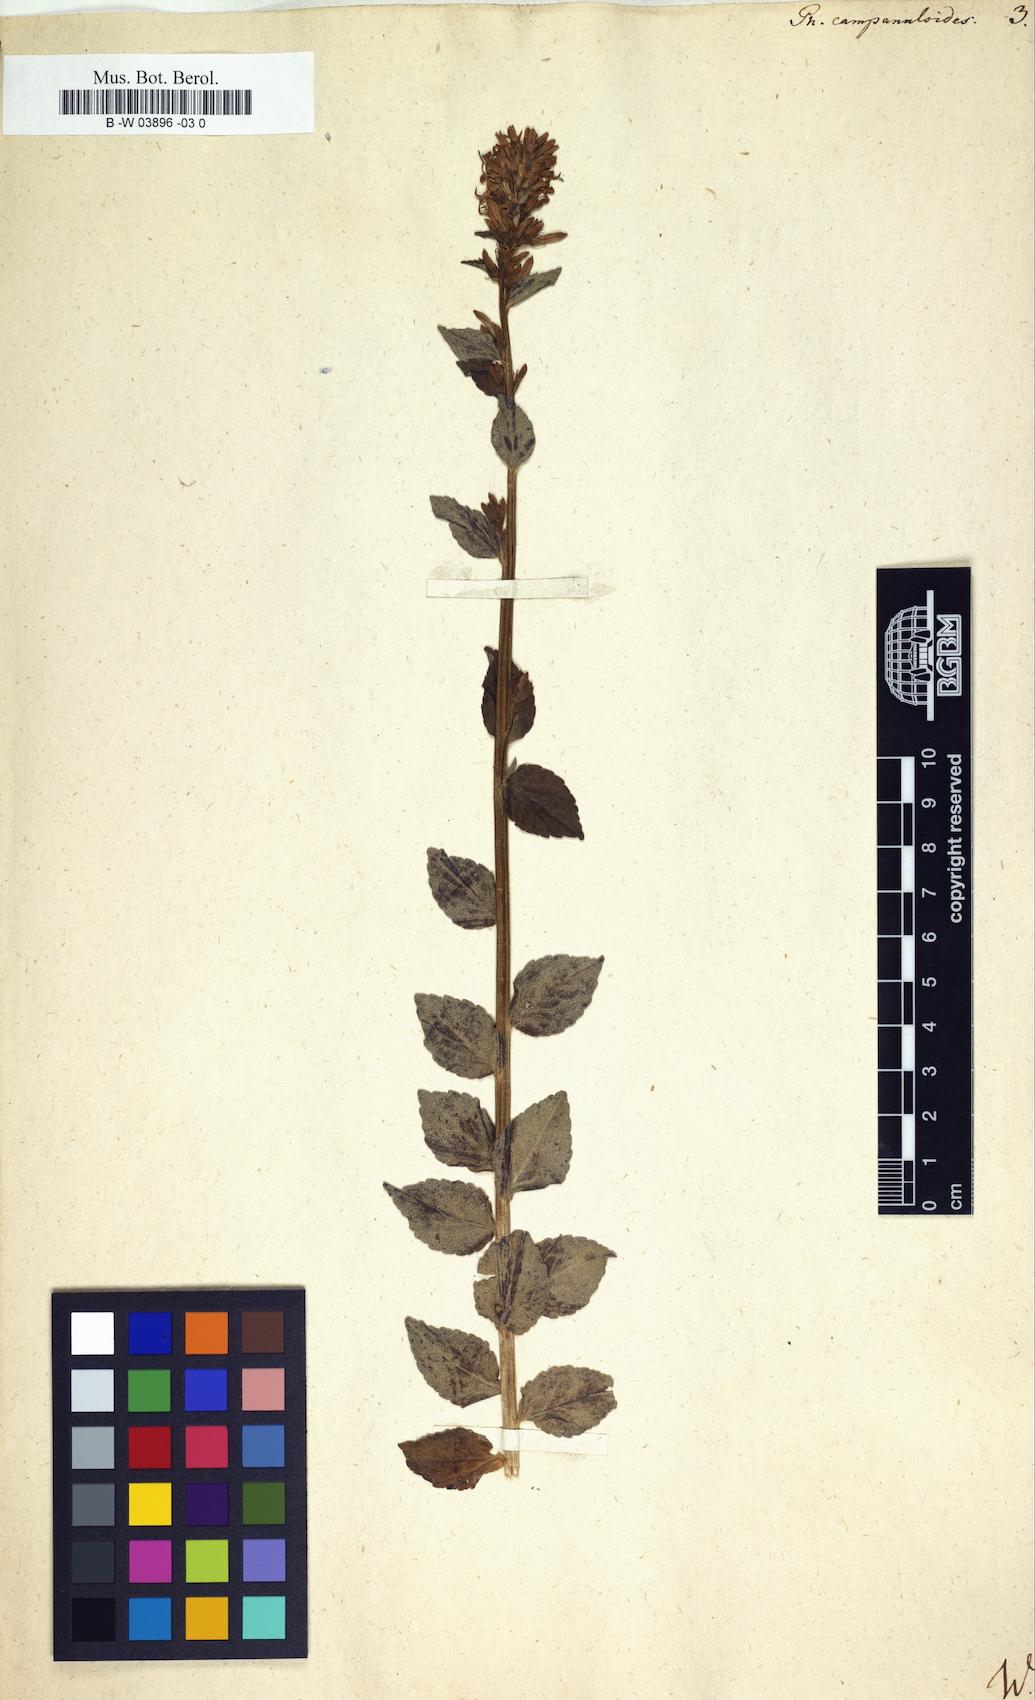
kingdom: Plantae
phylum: Tracheophyta
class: Magnoliopsida
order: Asterales
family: Campanulaceae
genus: Phyteuma
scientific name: Phyteuma campanuloides
